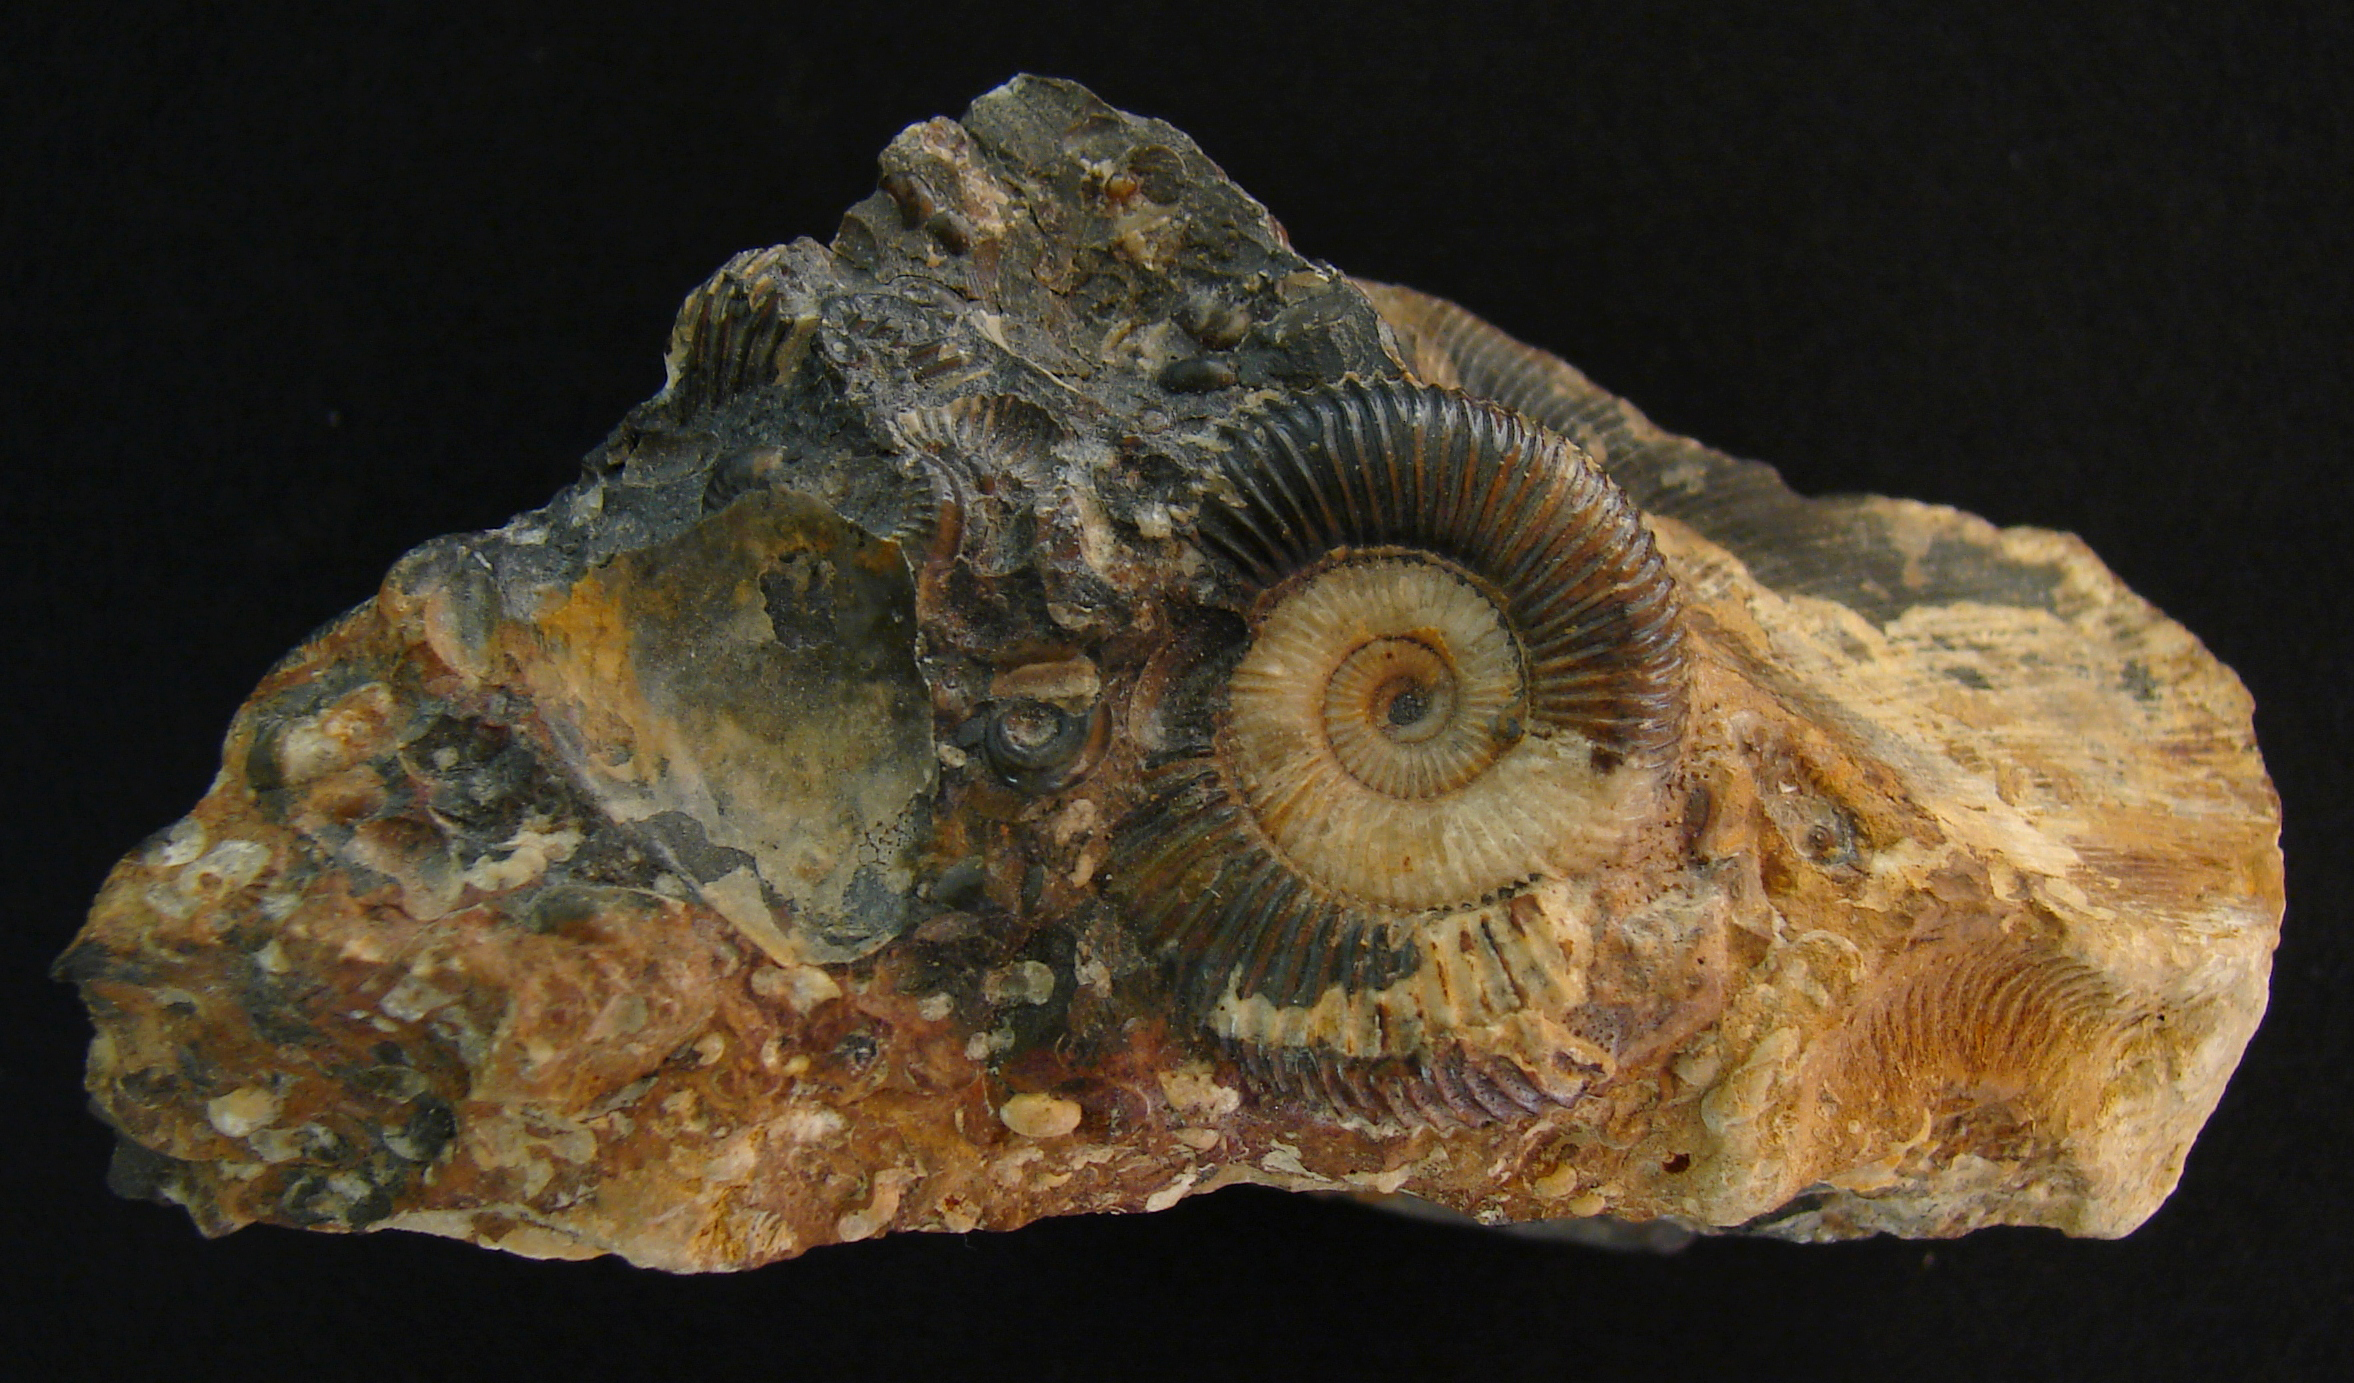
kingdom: Animalia
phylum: Mollusca
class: Cephalopoda
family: Dactylioceratidae
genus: Dactylioceras
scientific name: Dactylioceras
